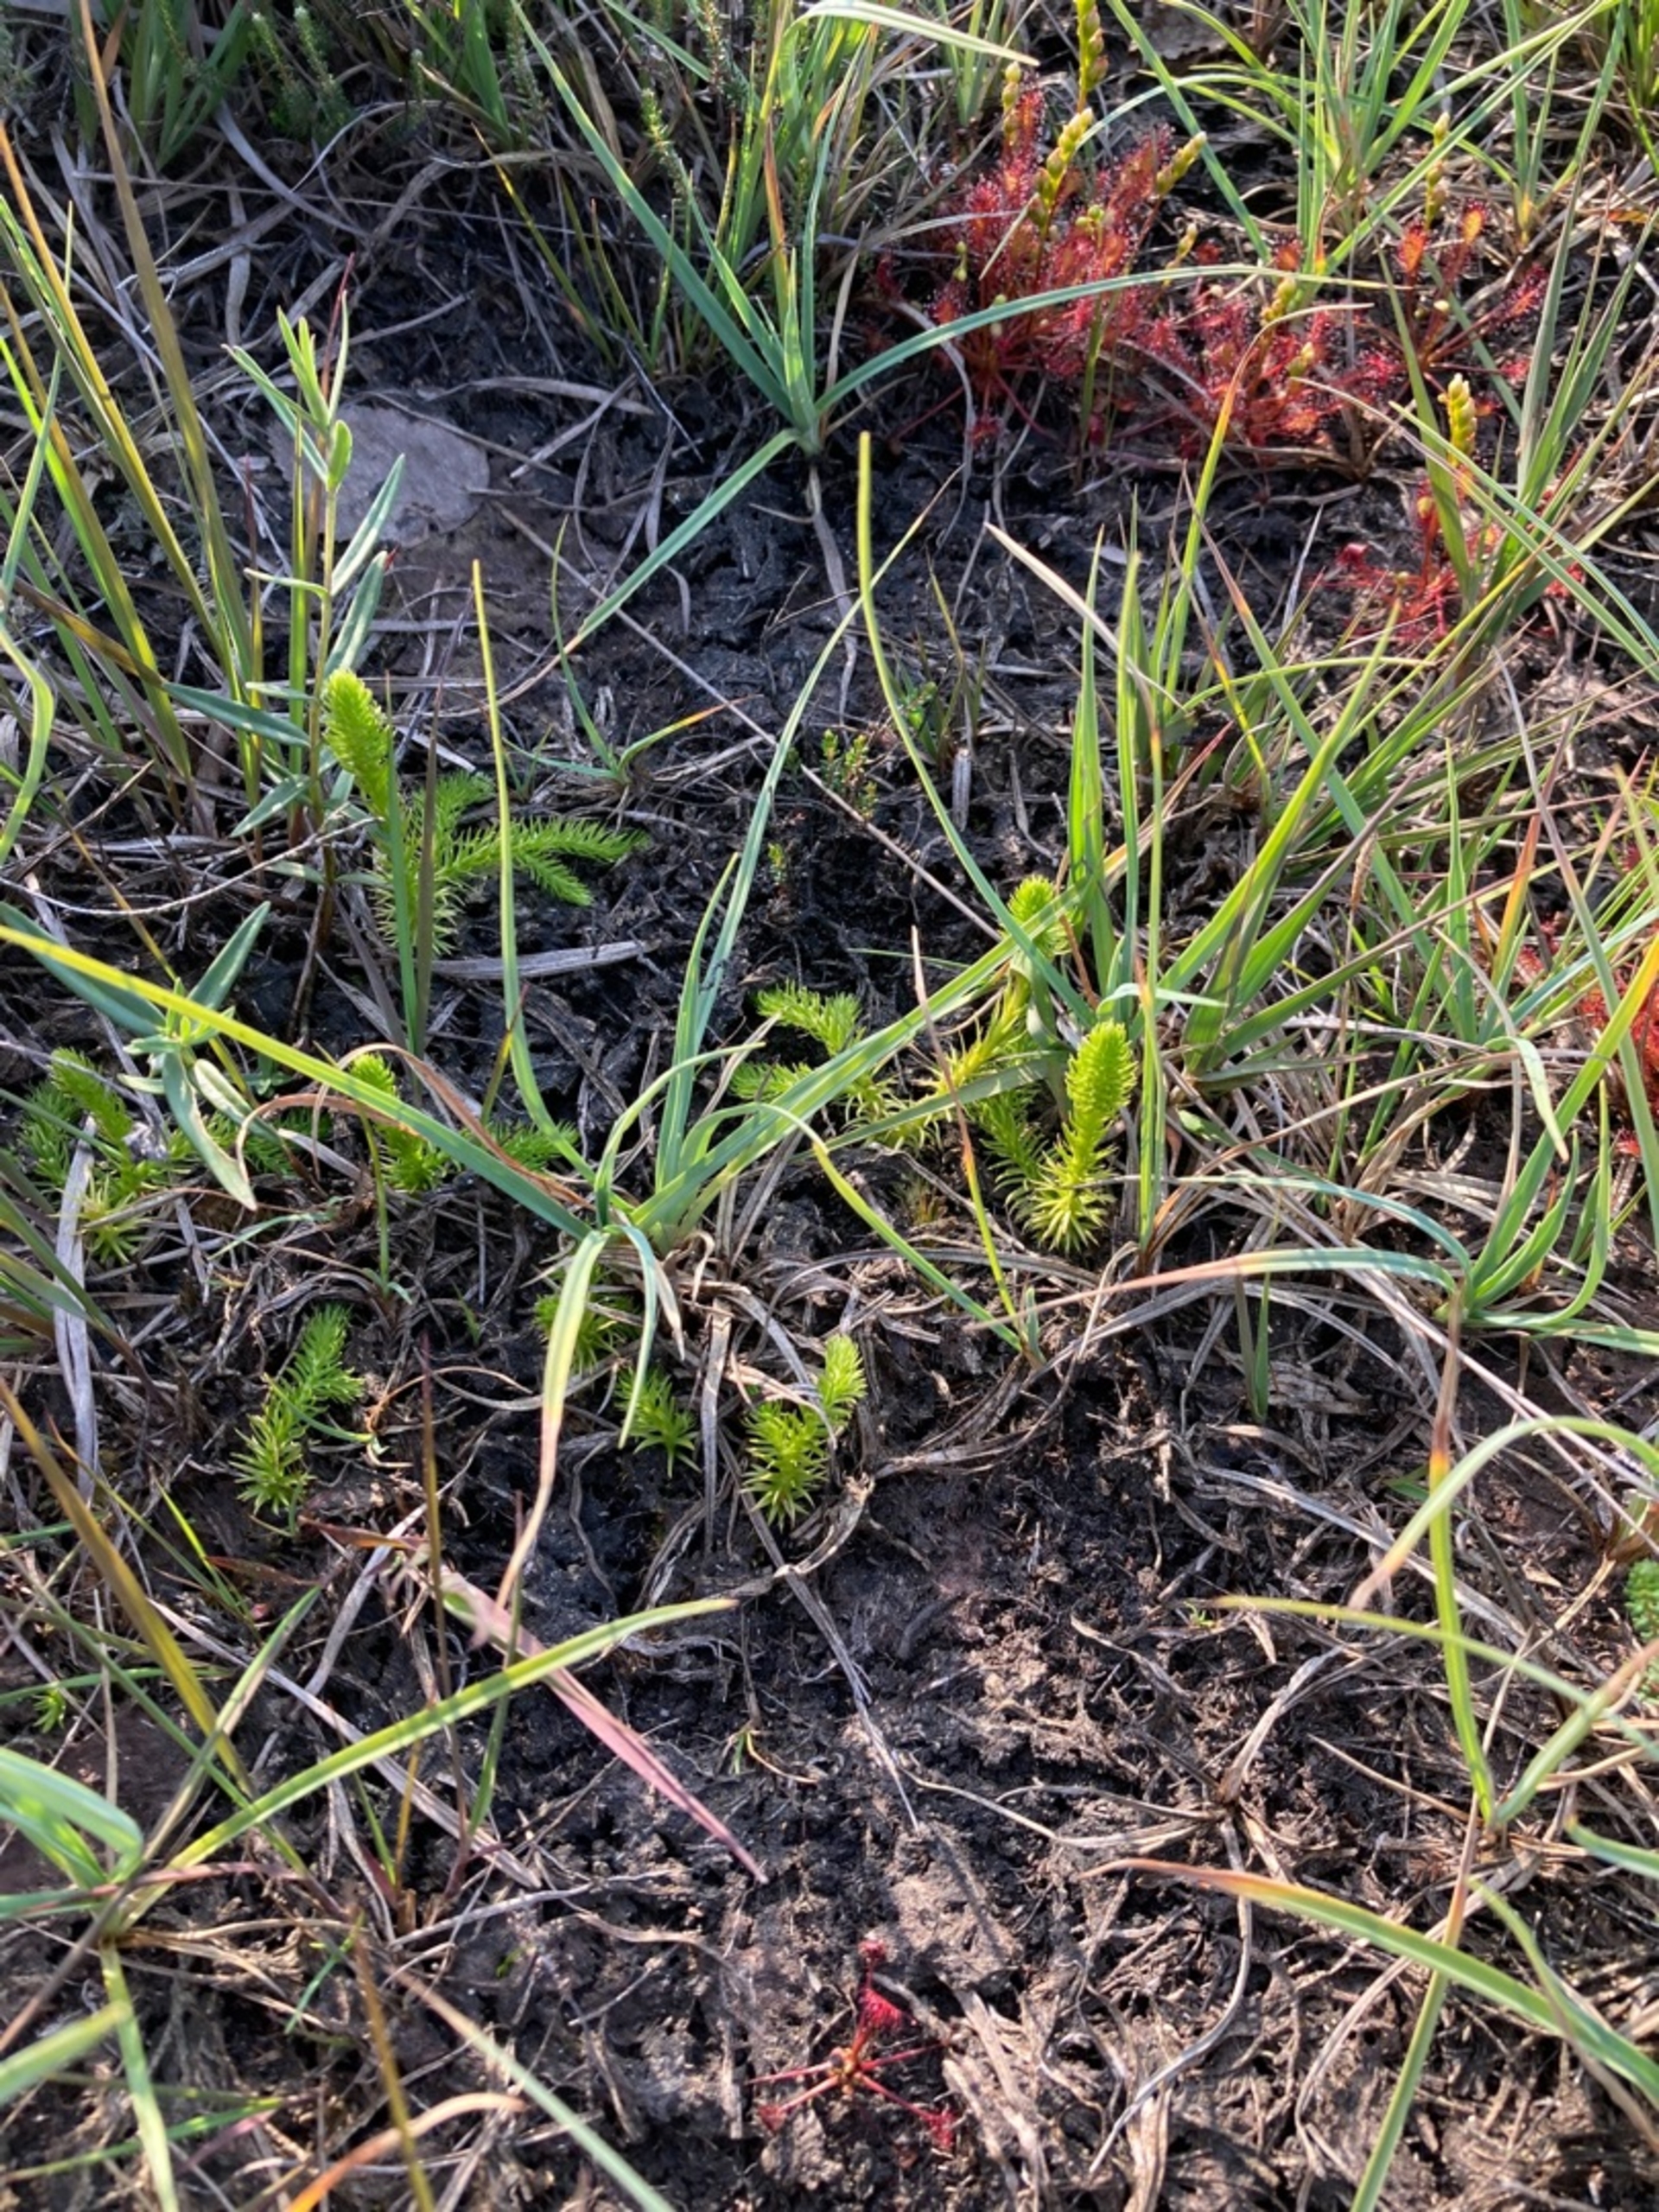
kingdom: Plantae
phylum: Tracheophyta
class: Lycopodiopsida
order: Lycopodiales
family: Lycopodiaceae
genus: Lycopodiella
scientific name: Lycopodiella inundata
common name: Liden ulvefod
